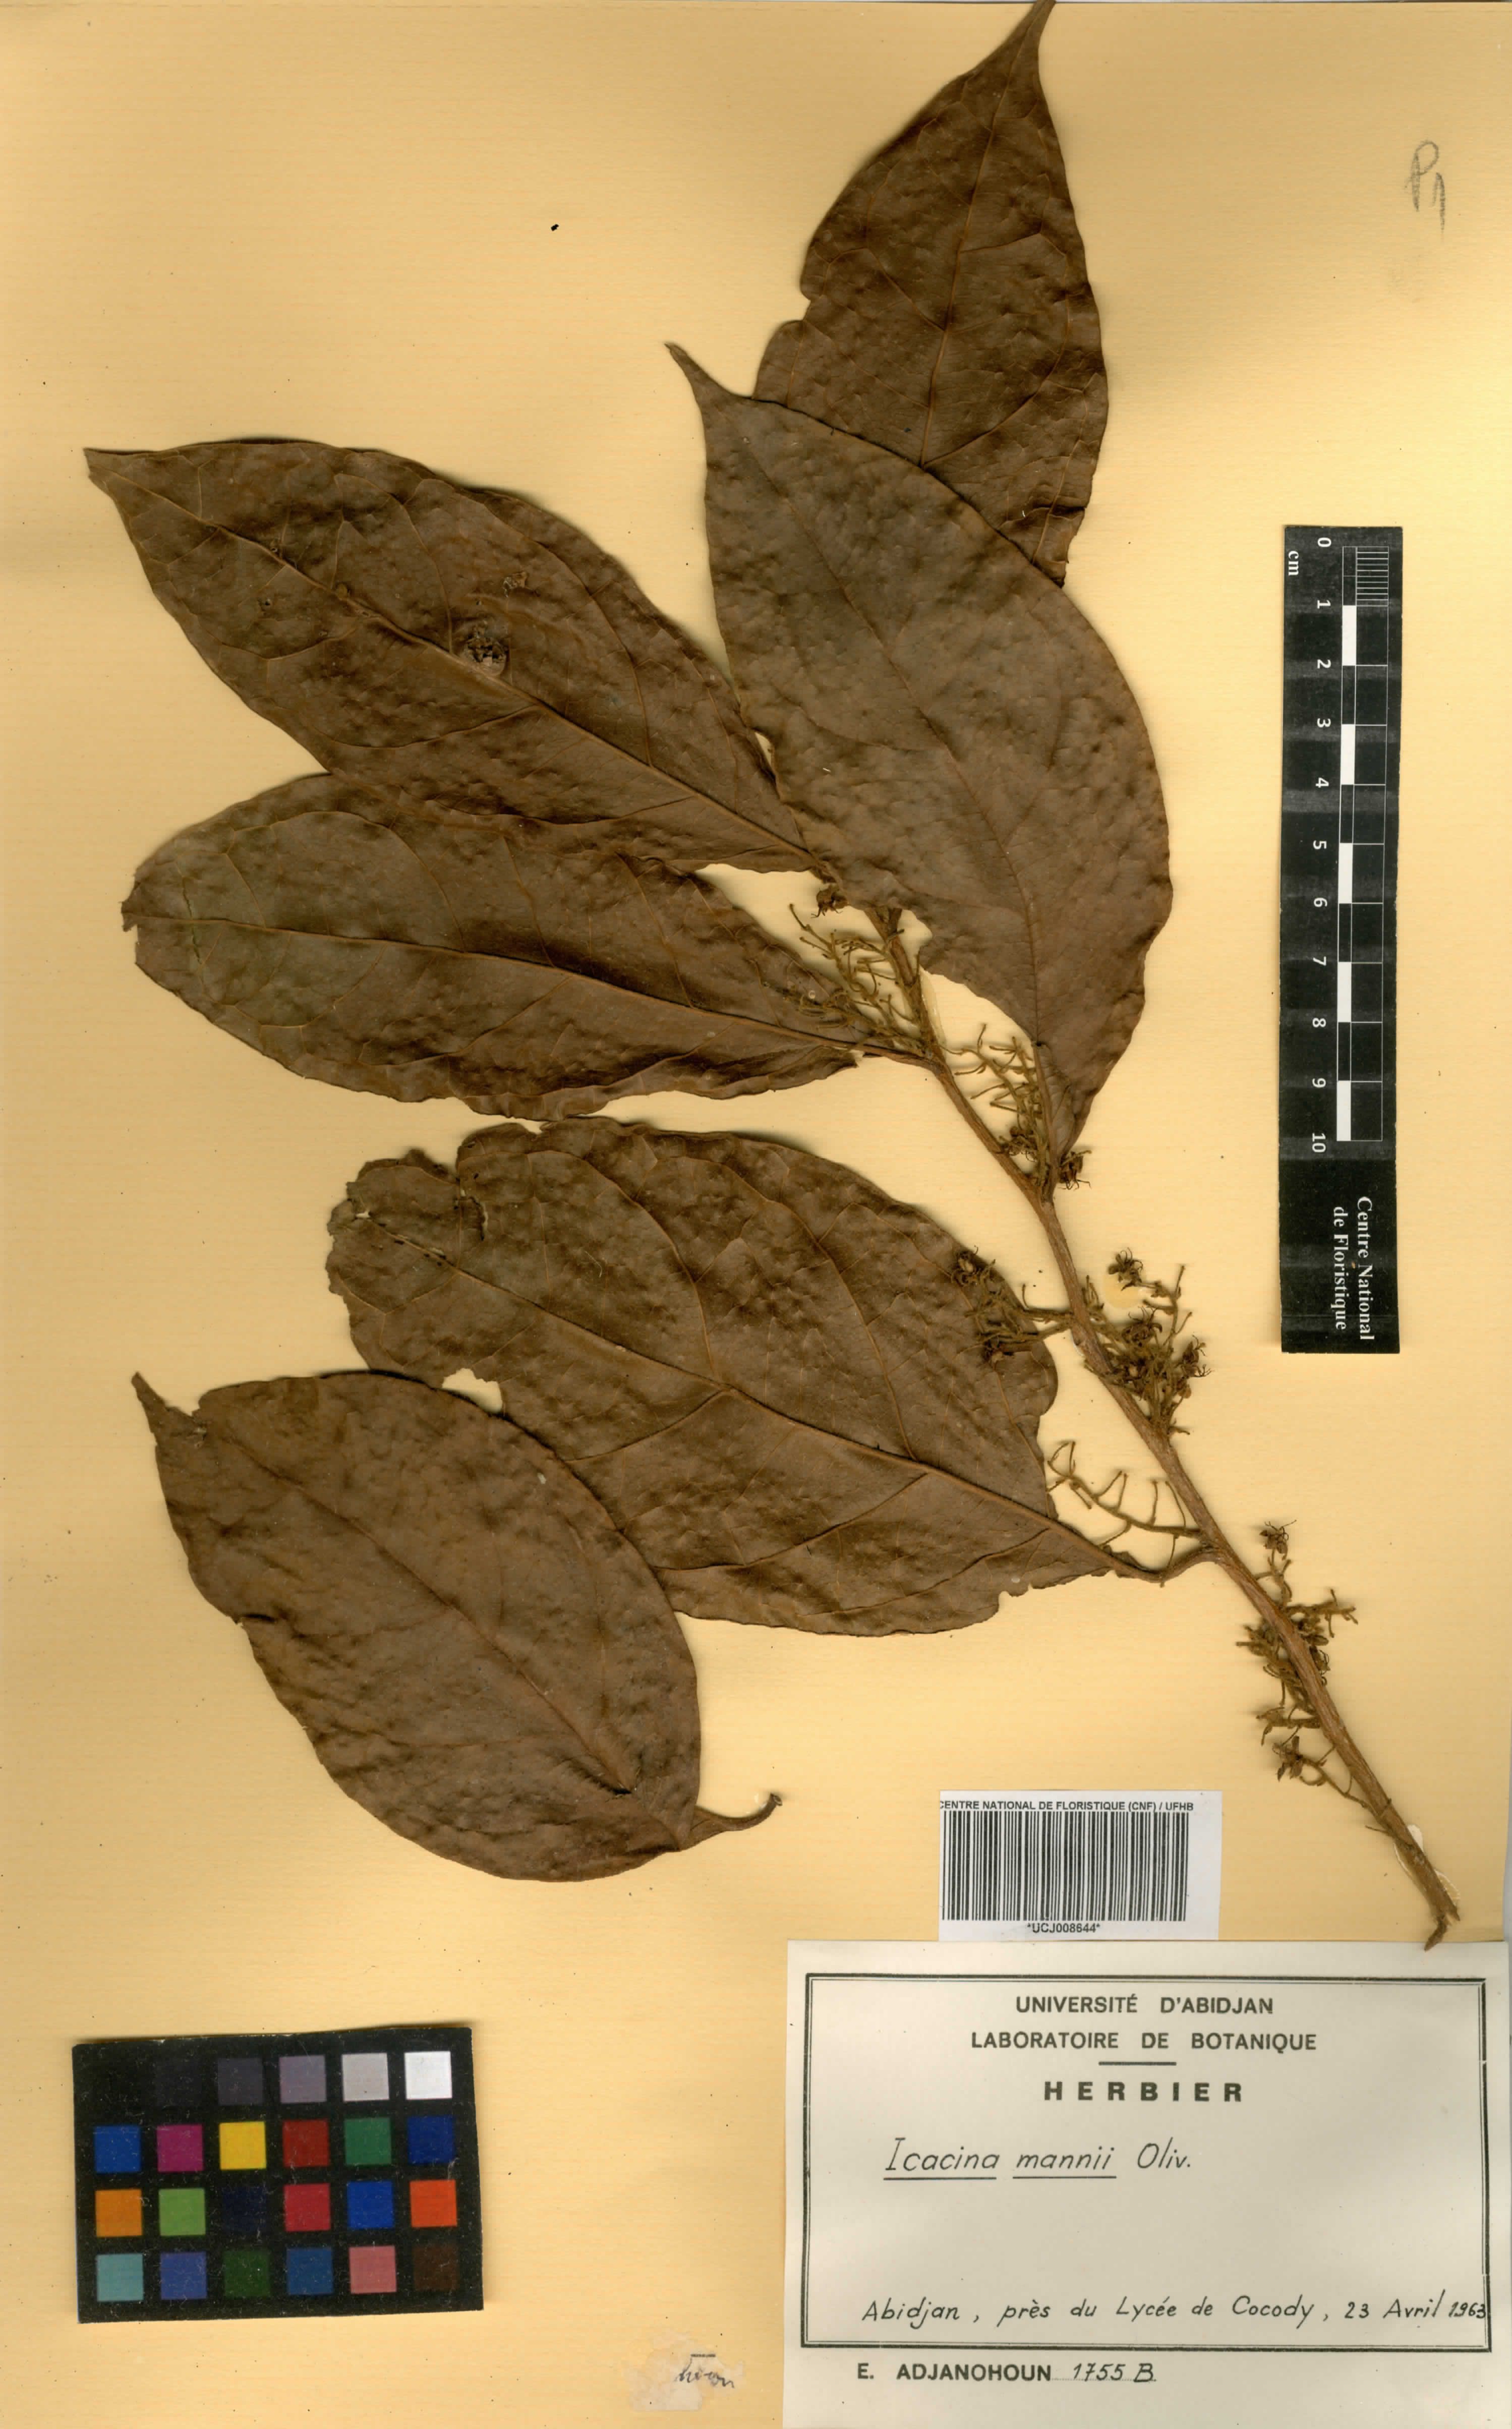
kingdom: Plantae
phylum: Tracheophyta
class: Magnoliopsida
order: Icacinales
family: Icacinaceae
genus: Icacina
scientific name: Icacina mannii
